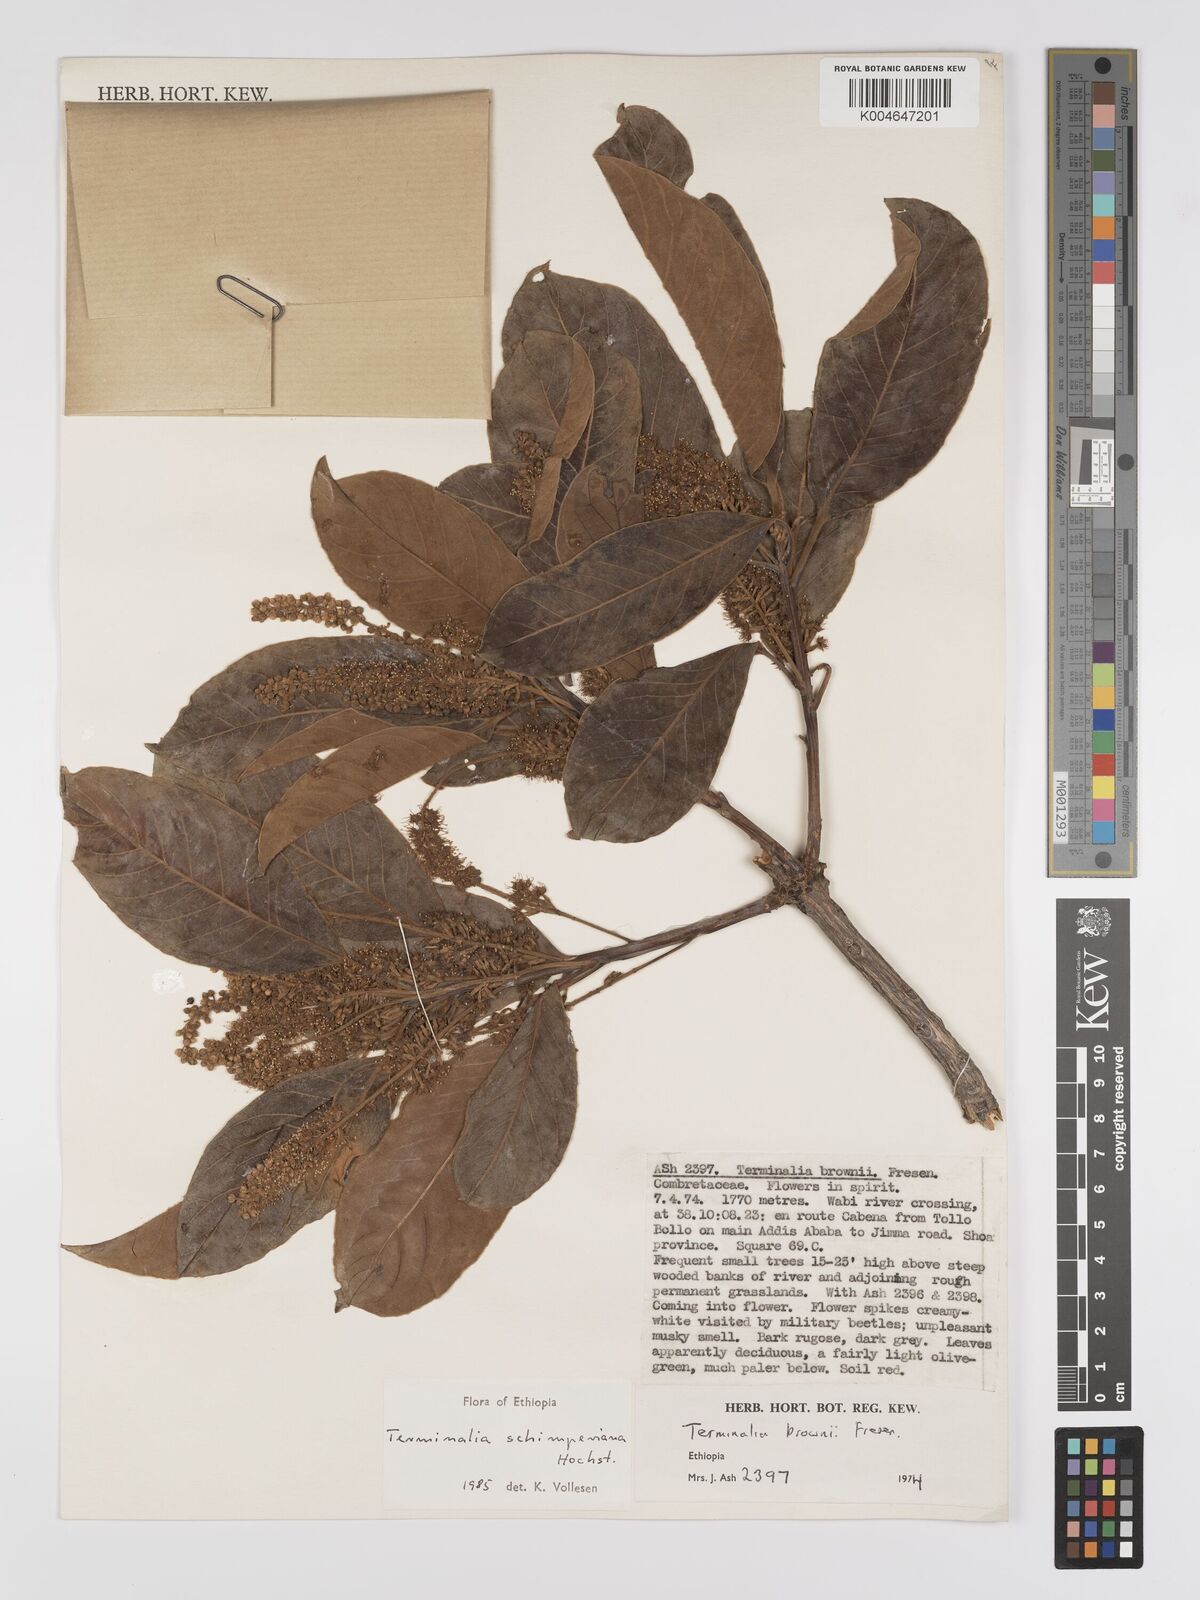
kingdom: Plantae
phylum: Tracheophyta
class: Magnoliopsida
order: Myrtales
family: Combretaceae
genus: Terminalia
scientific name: Terminalia schimperiana
